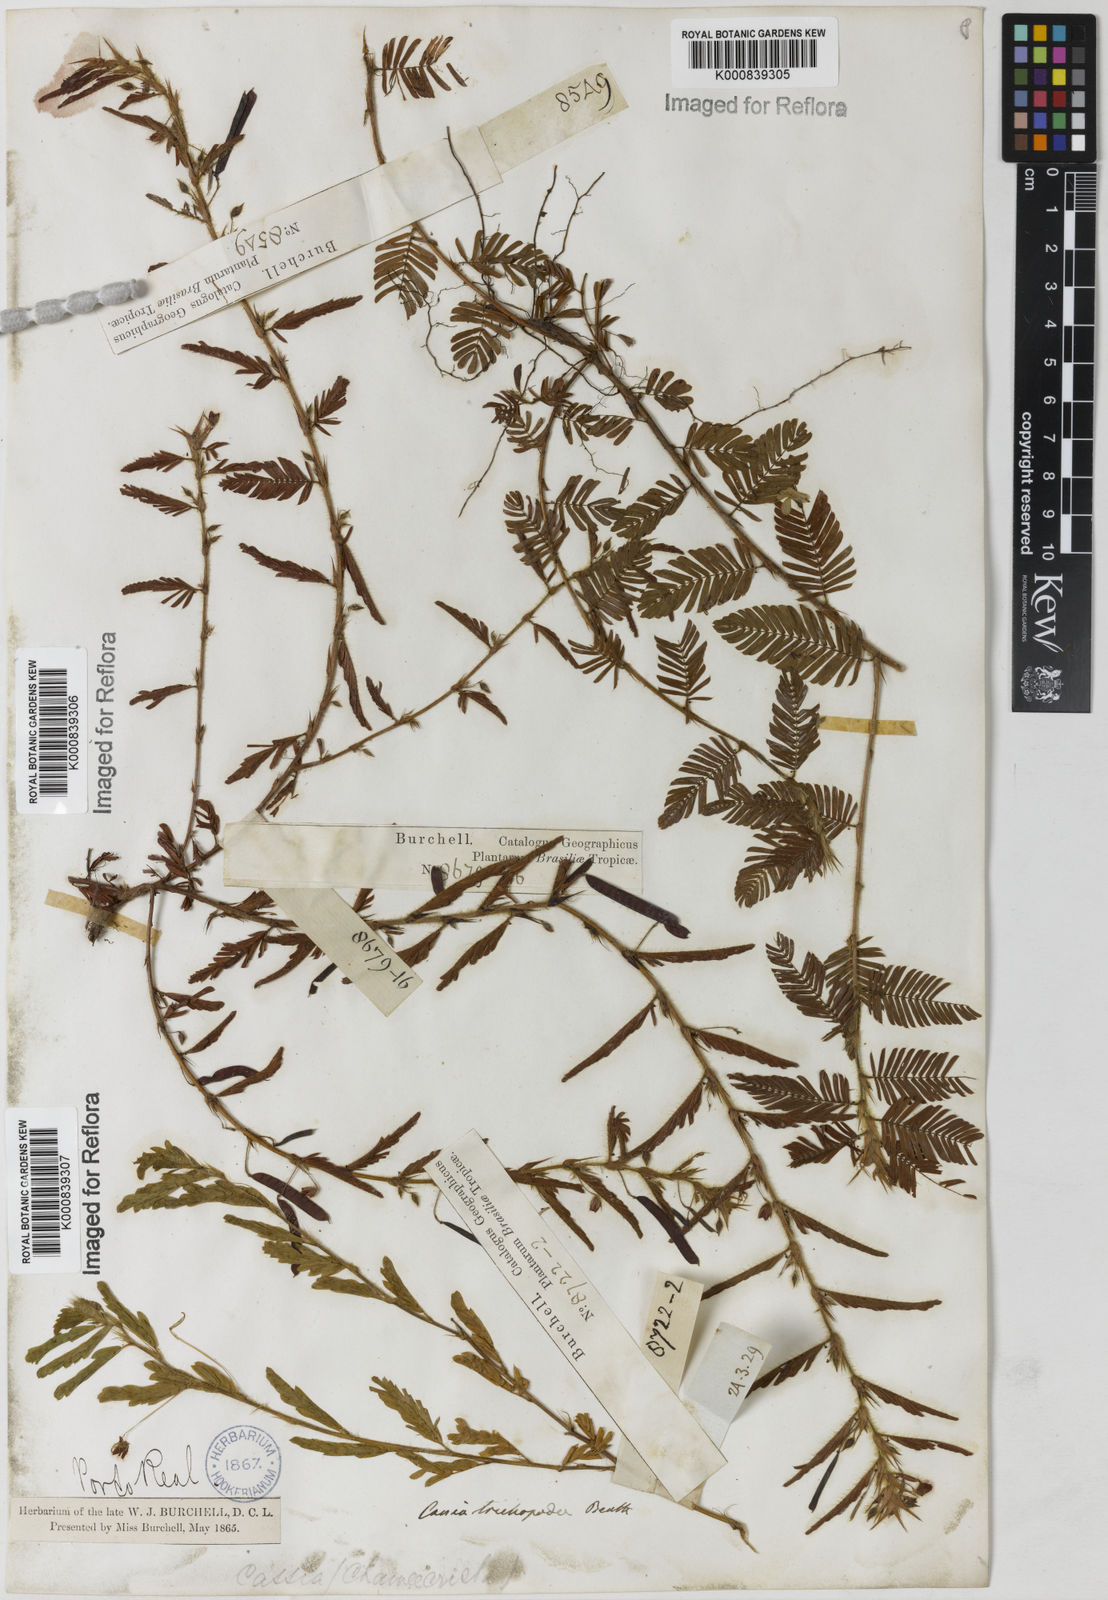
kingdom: Plantae
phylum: Tracheophyta
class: Magnoliopsida
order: Fabales
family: Fabaceae
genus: Chamaecrista
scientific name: Chamaecrista trichopoda
